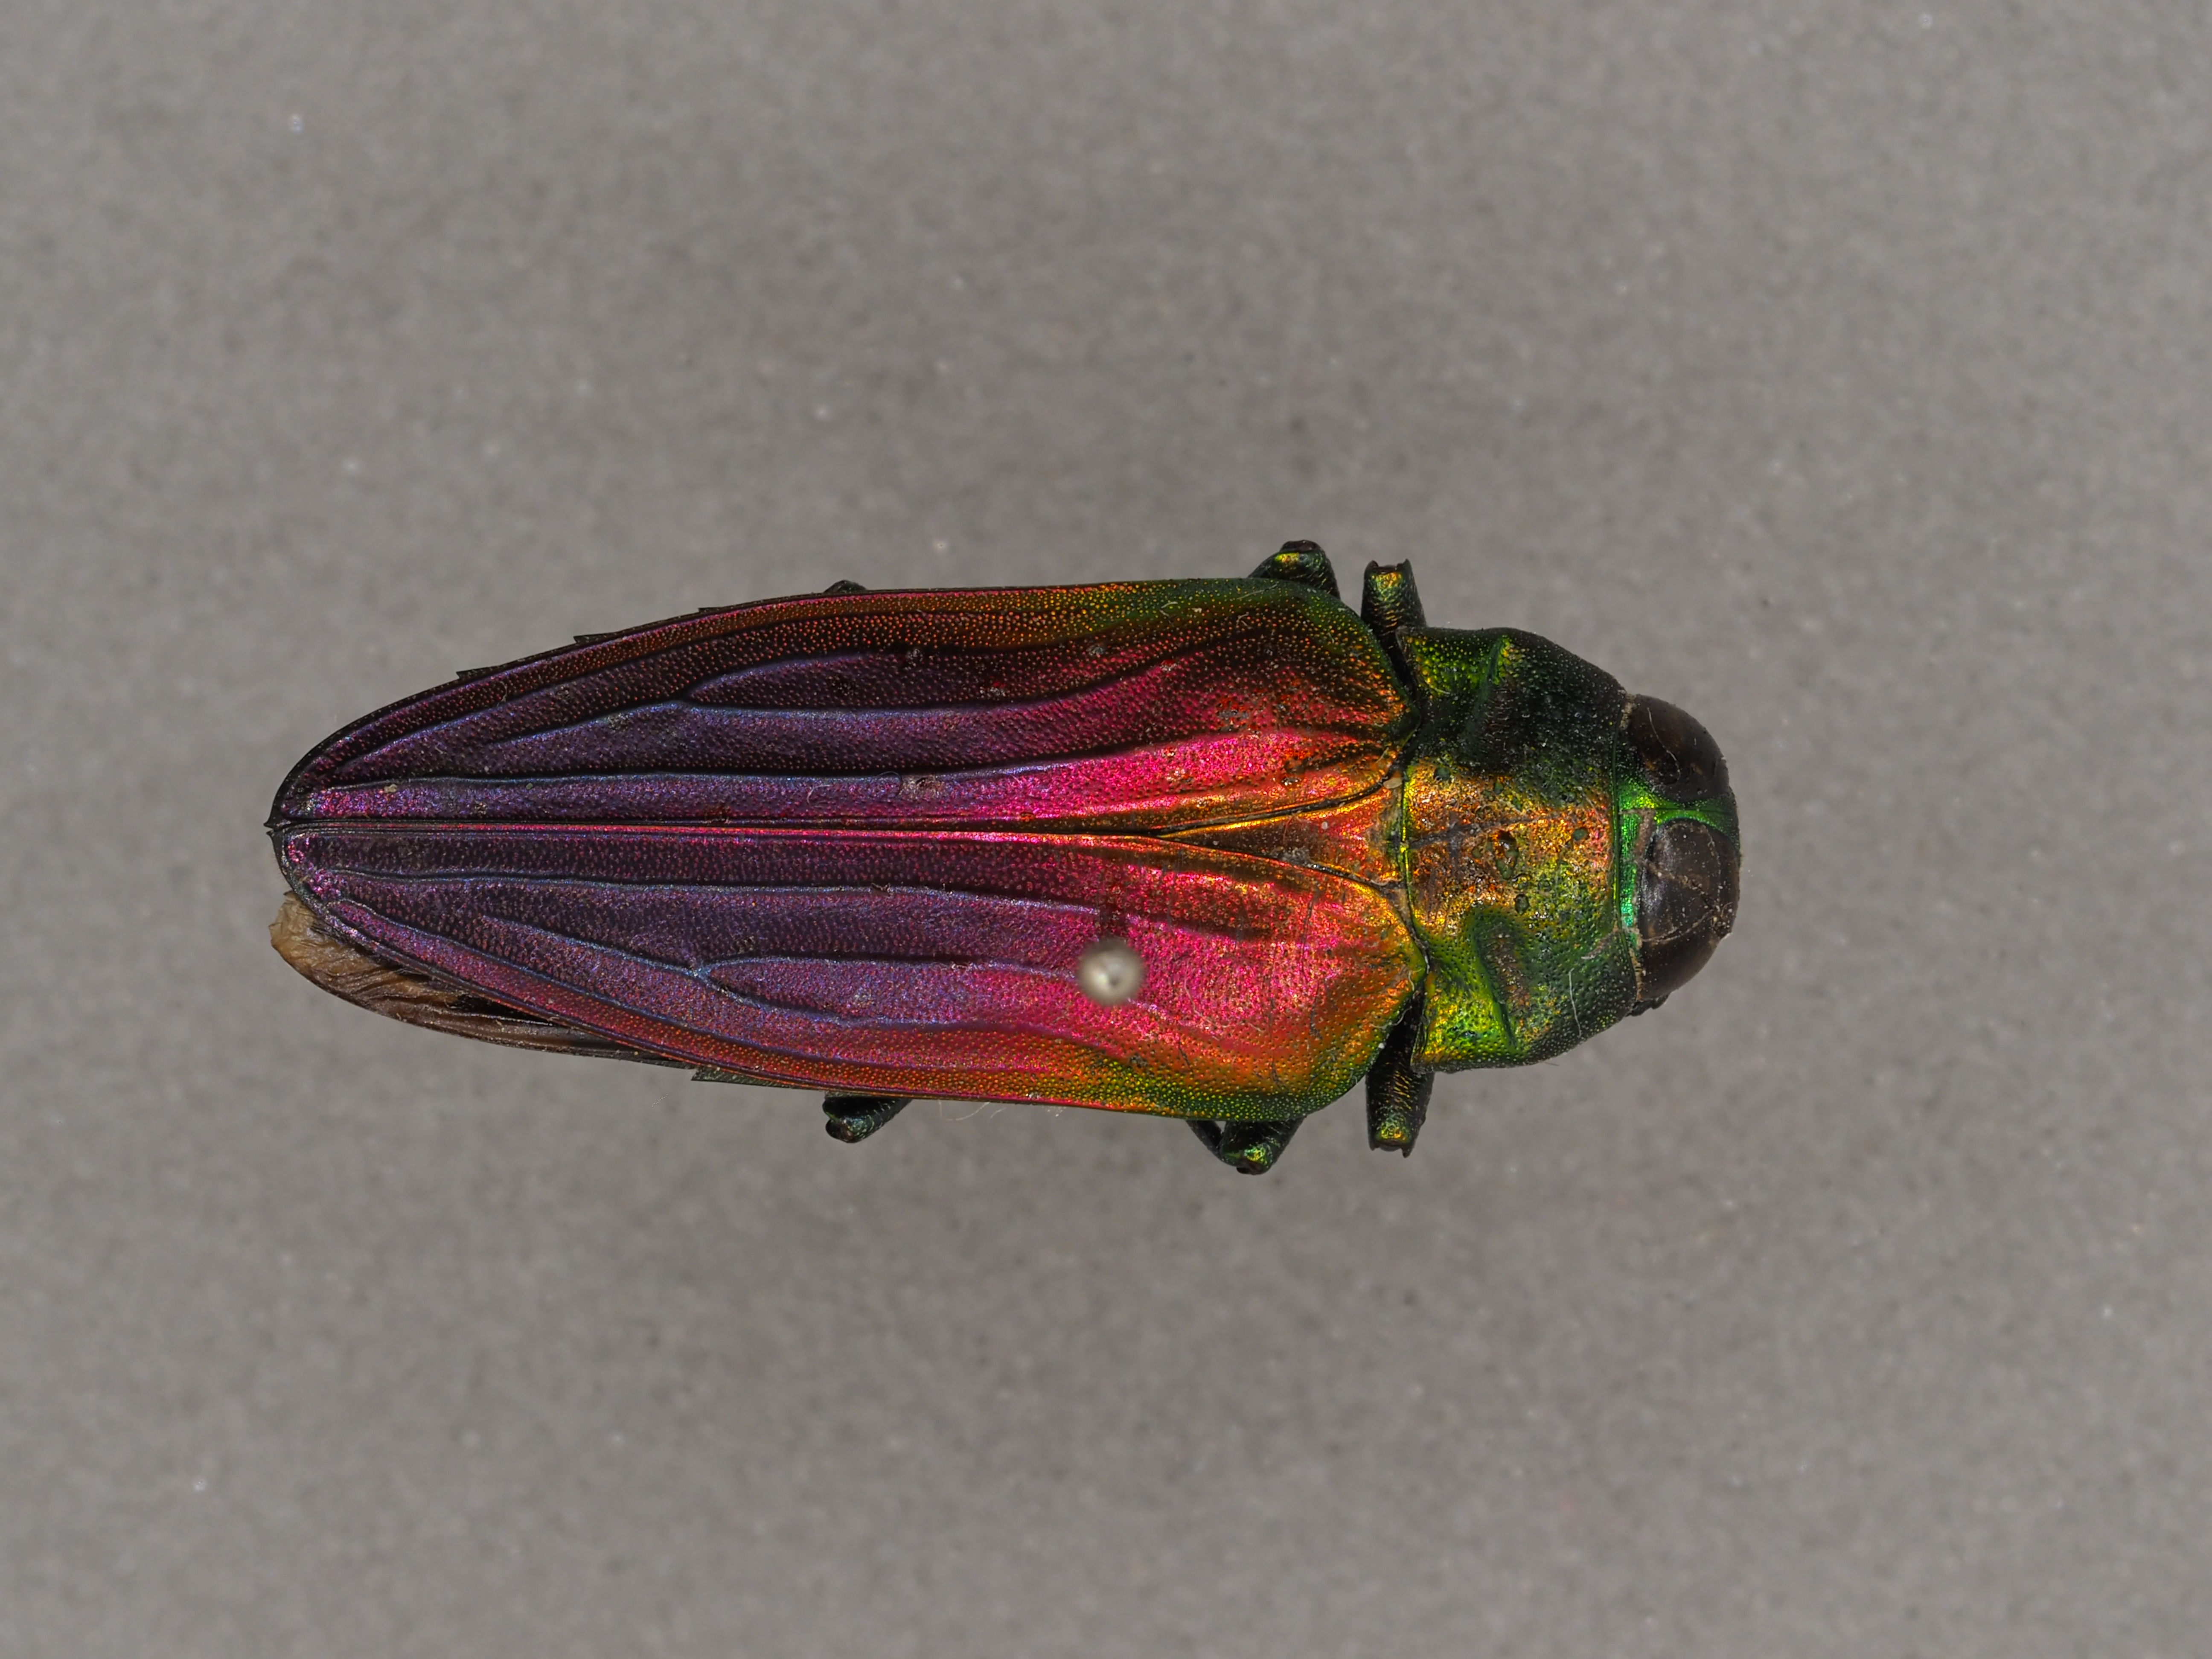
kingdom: Animalia
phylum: Arthropoda
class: Insecta
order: Coleoptera
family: Buprestidae
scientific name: Buprestidae
